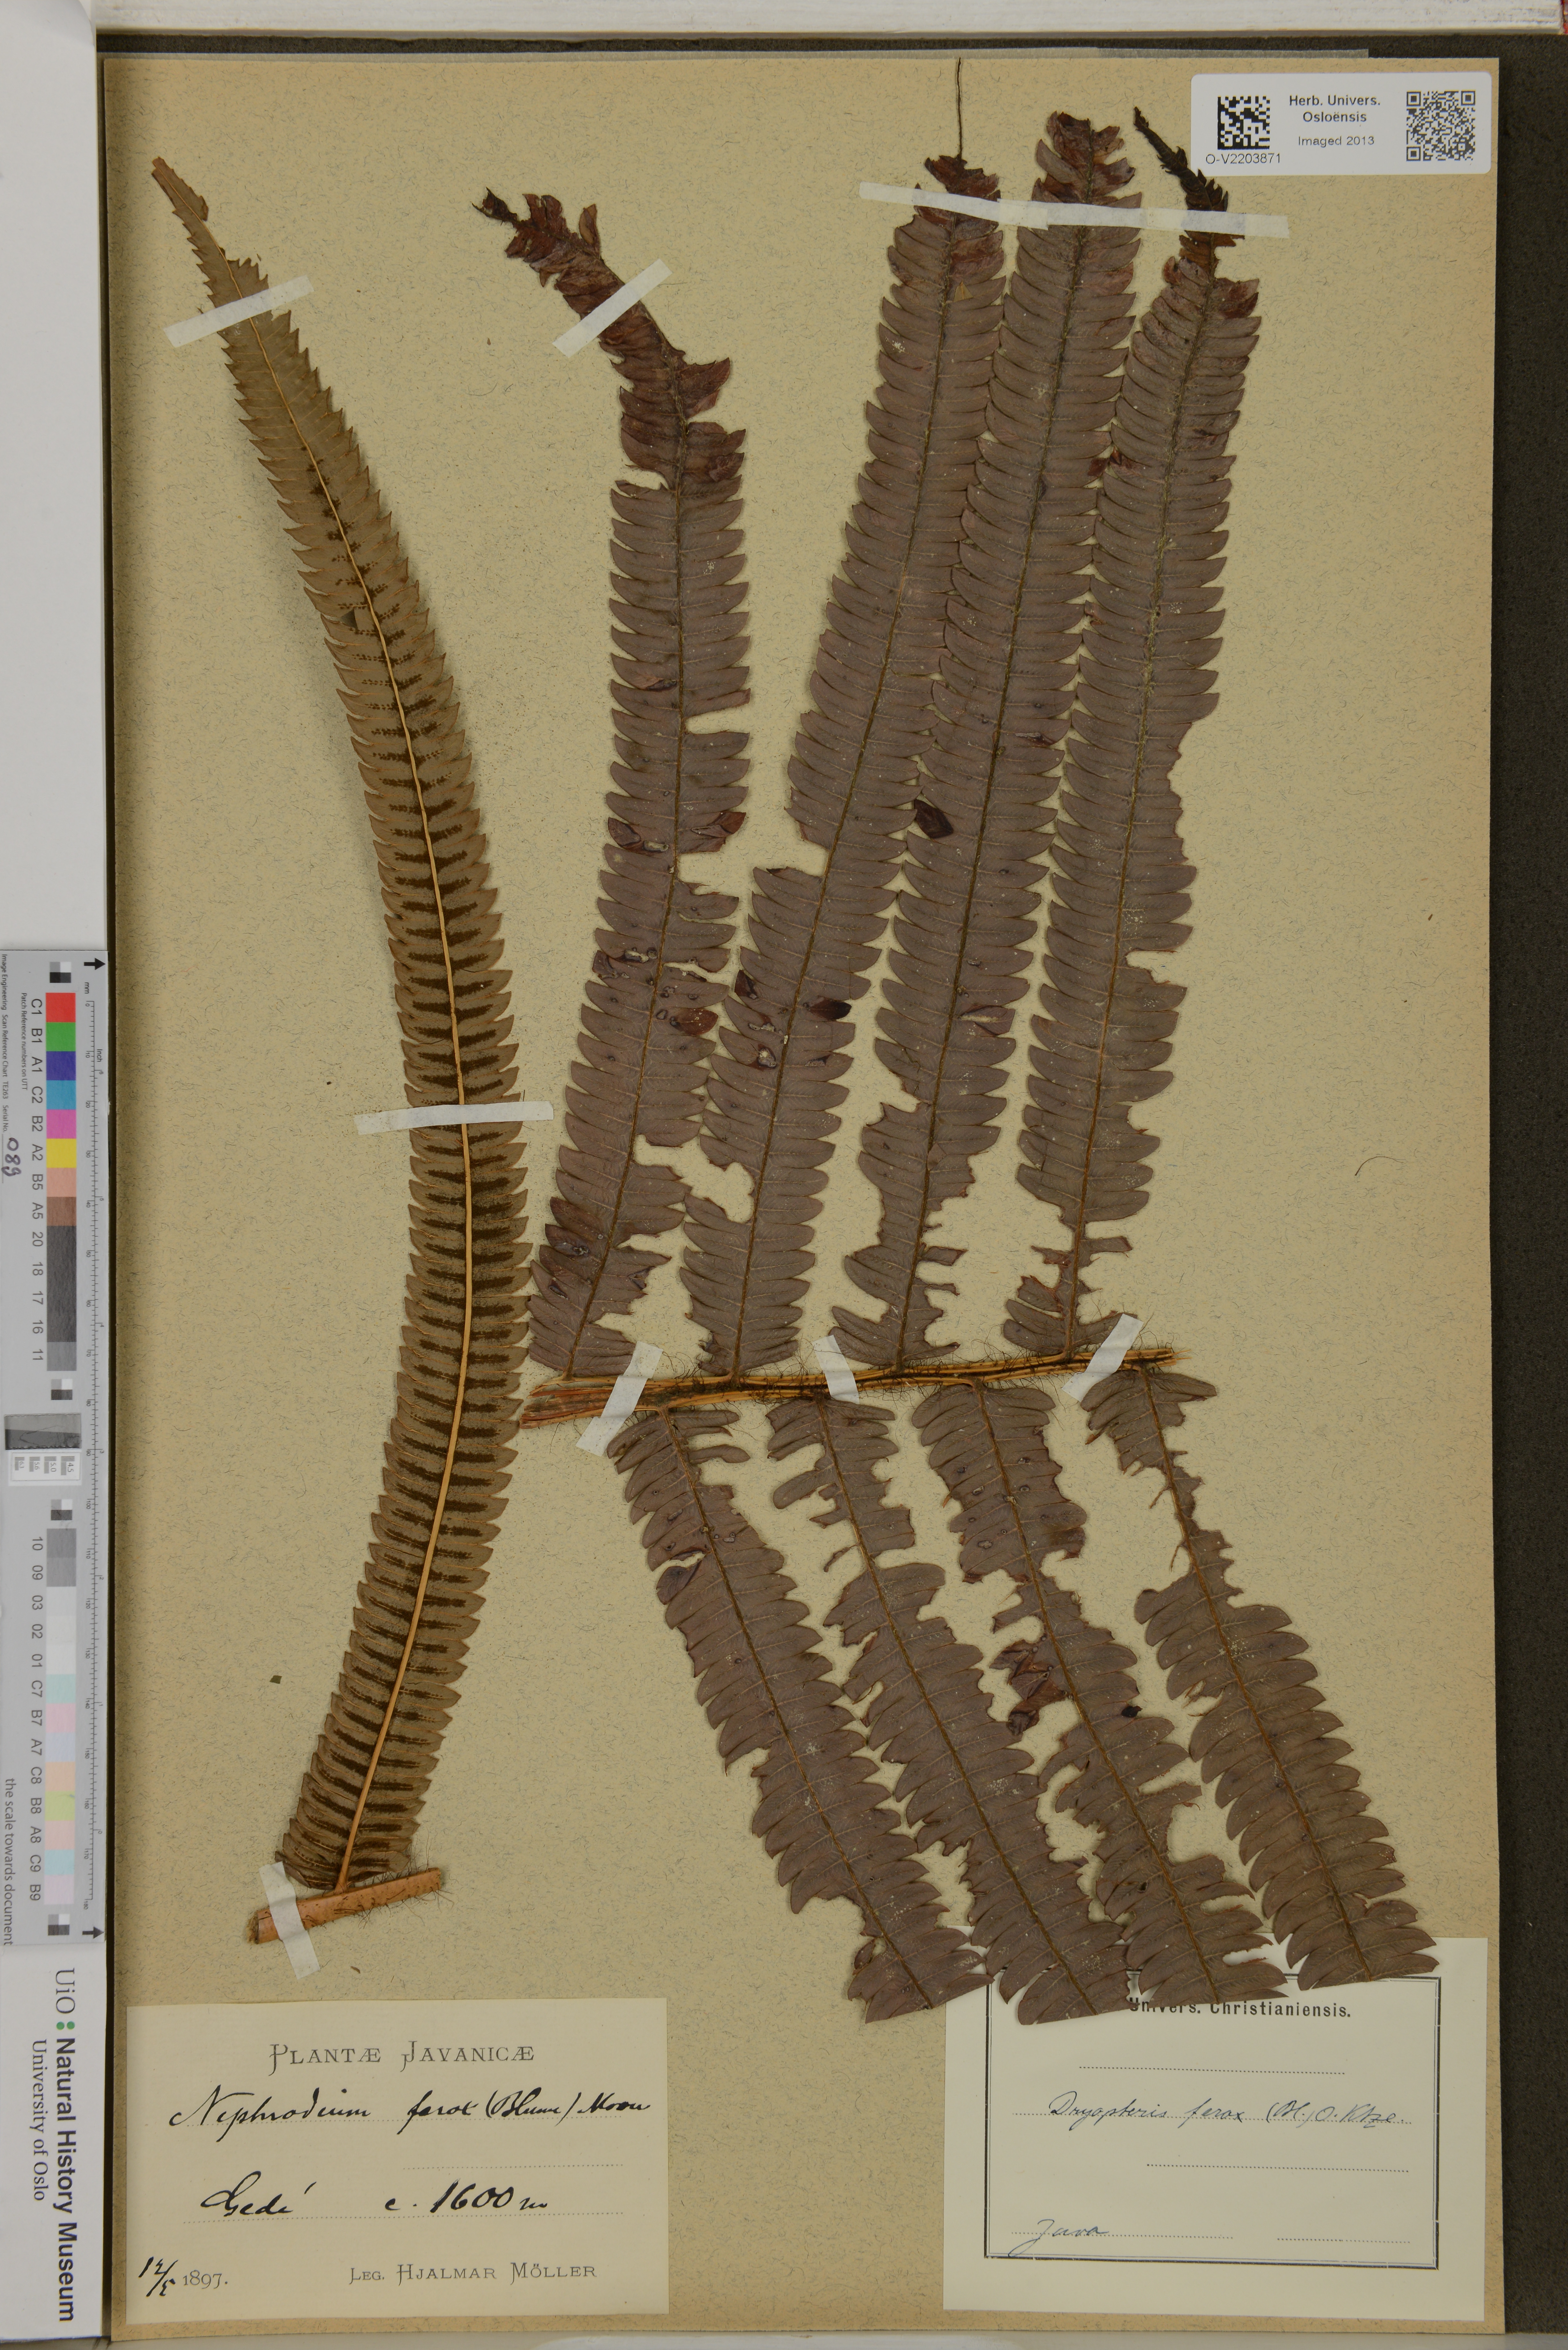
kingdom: Plantae
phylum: Tracheophyta
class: Polypodiopsida
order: Polypodiales
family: Thelypteridaceae
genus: Chingia
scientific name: Chingia ferox
